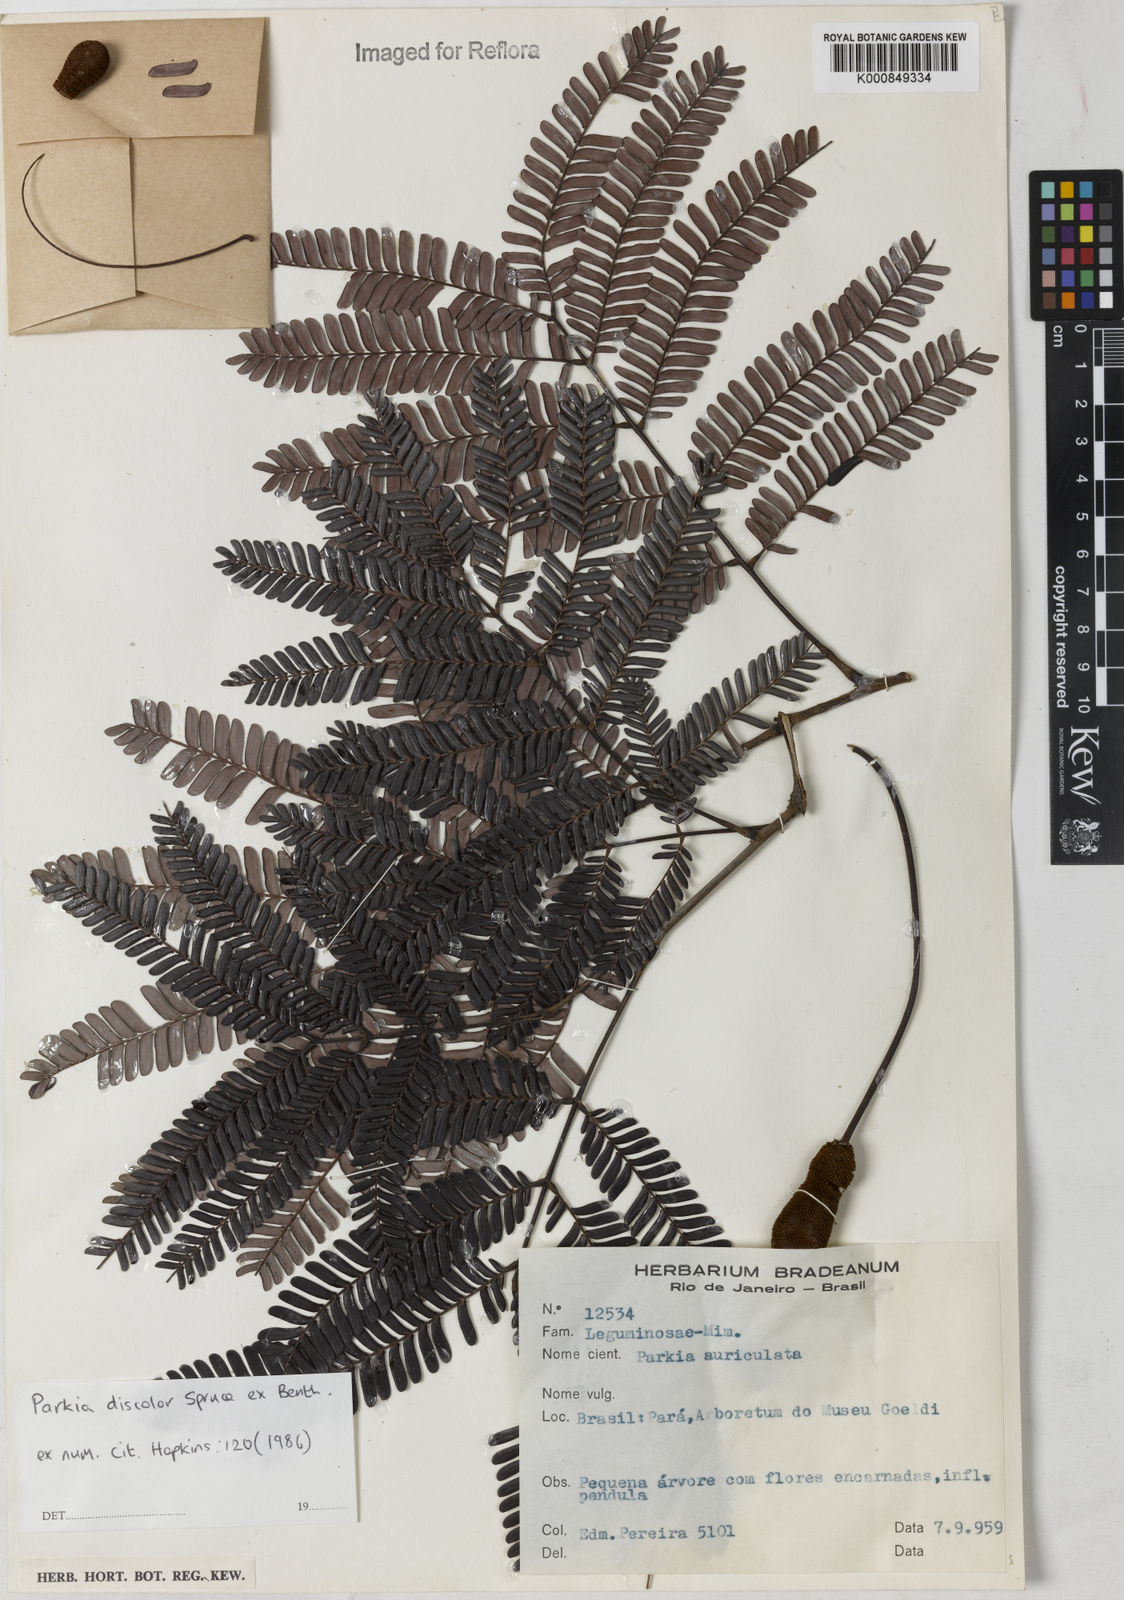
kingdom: Plantae
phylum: Tracheophyta
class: Magnoliopsida
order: Fabales
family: Fabaceae
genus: Parkia
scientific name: Parkia discolor
